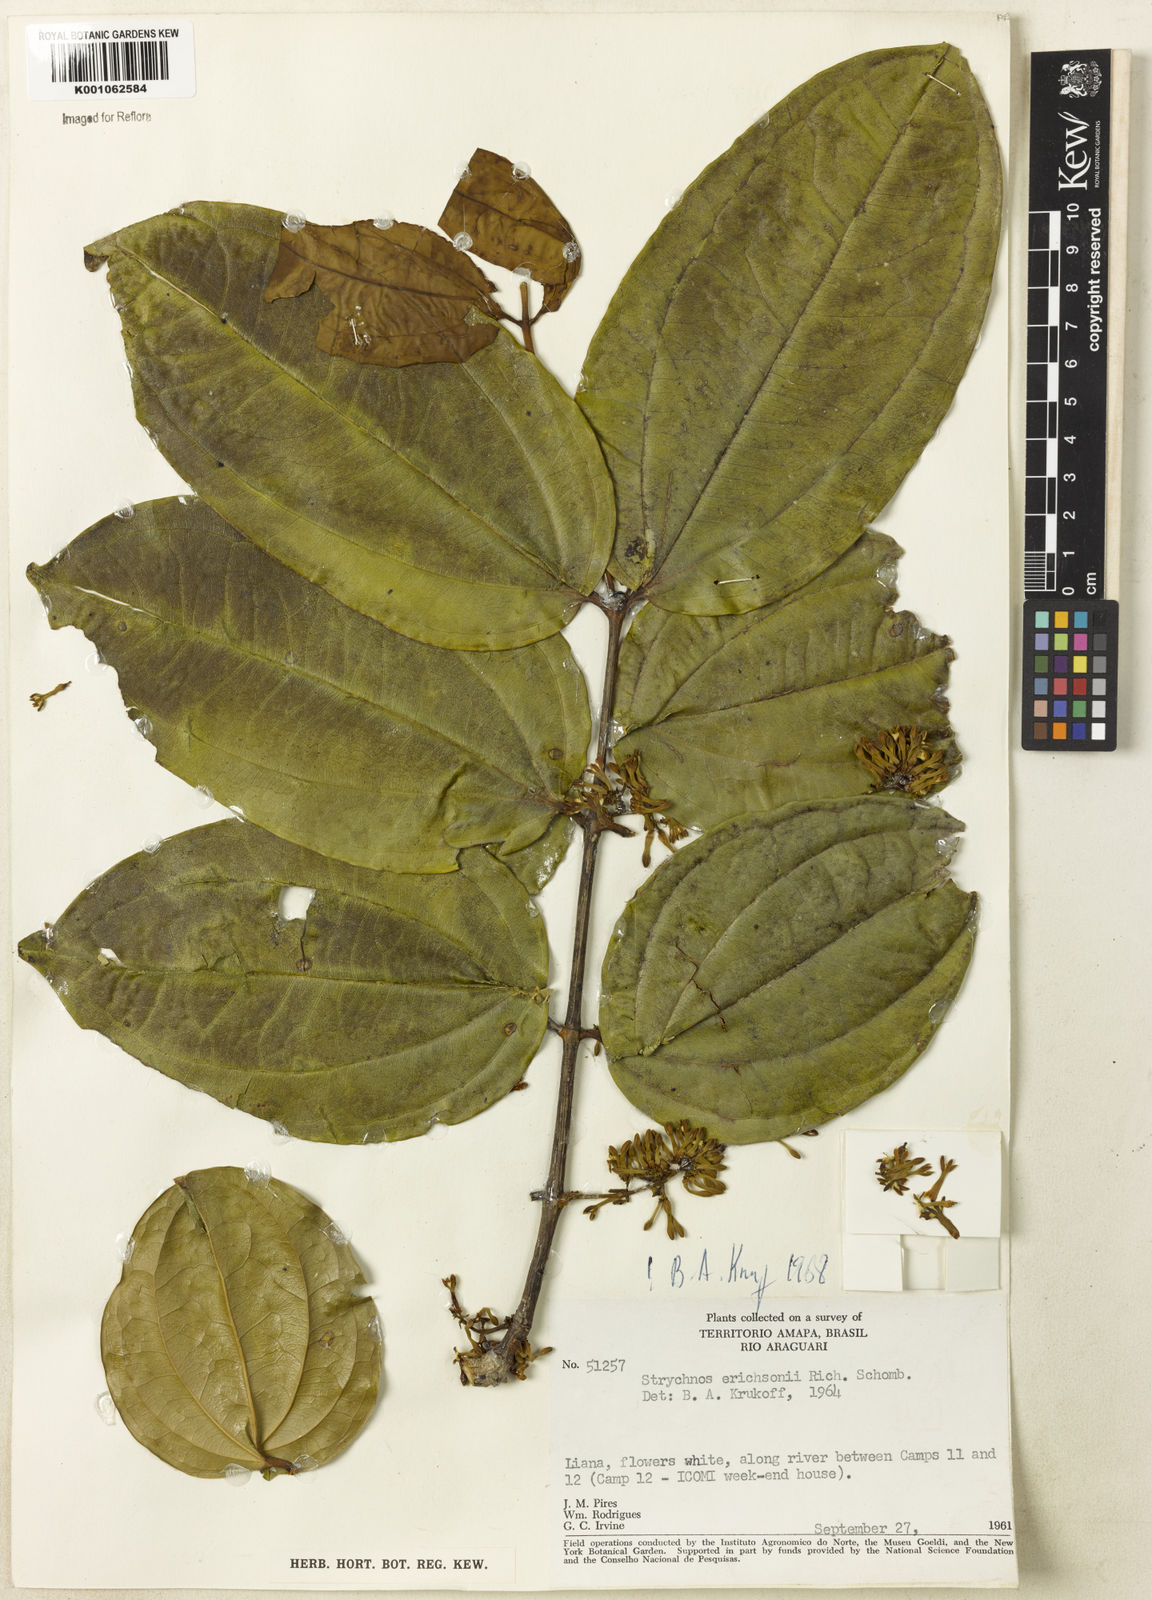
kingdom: Plantae
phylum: Tracheophyta
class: Magnoliopsida
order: Gentianales
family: Loganiaceae
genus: Strychnos
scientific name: Strychnos erichsonii
